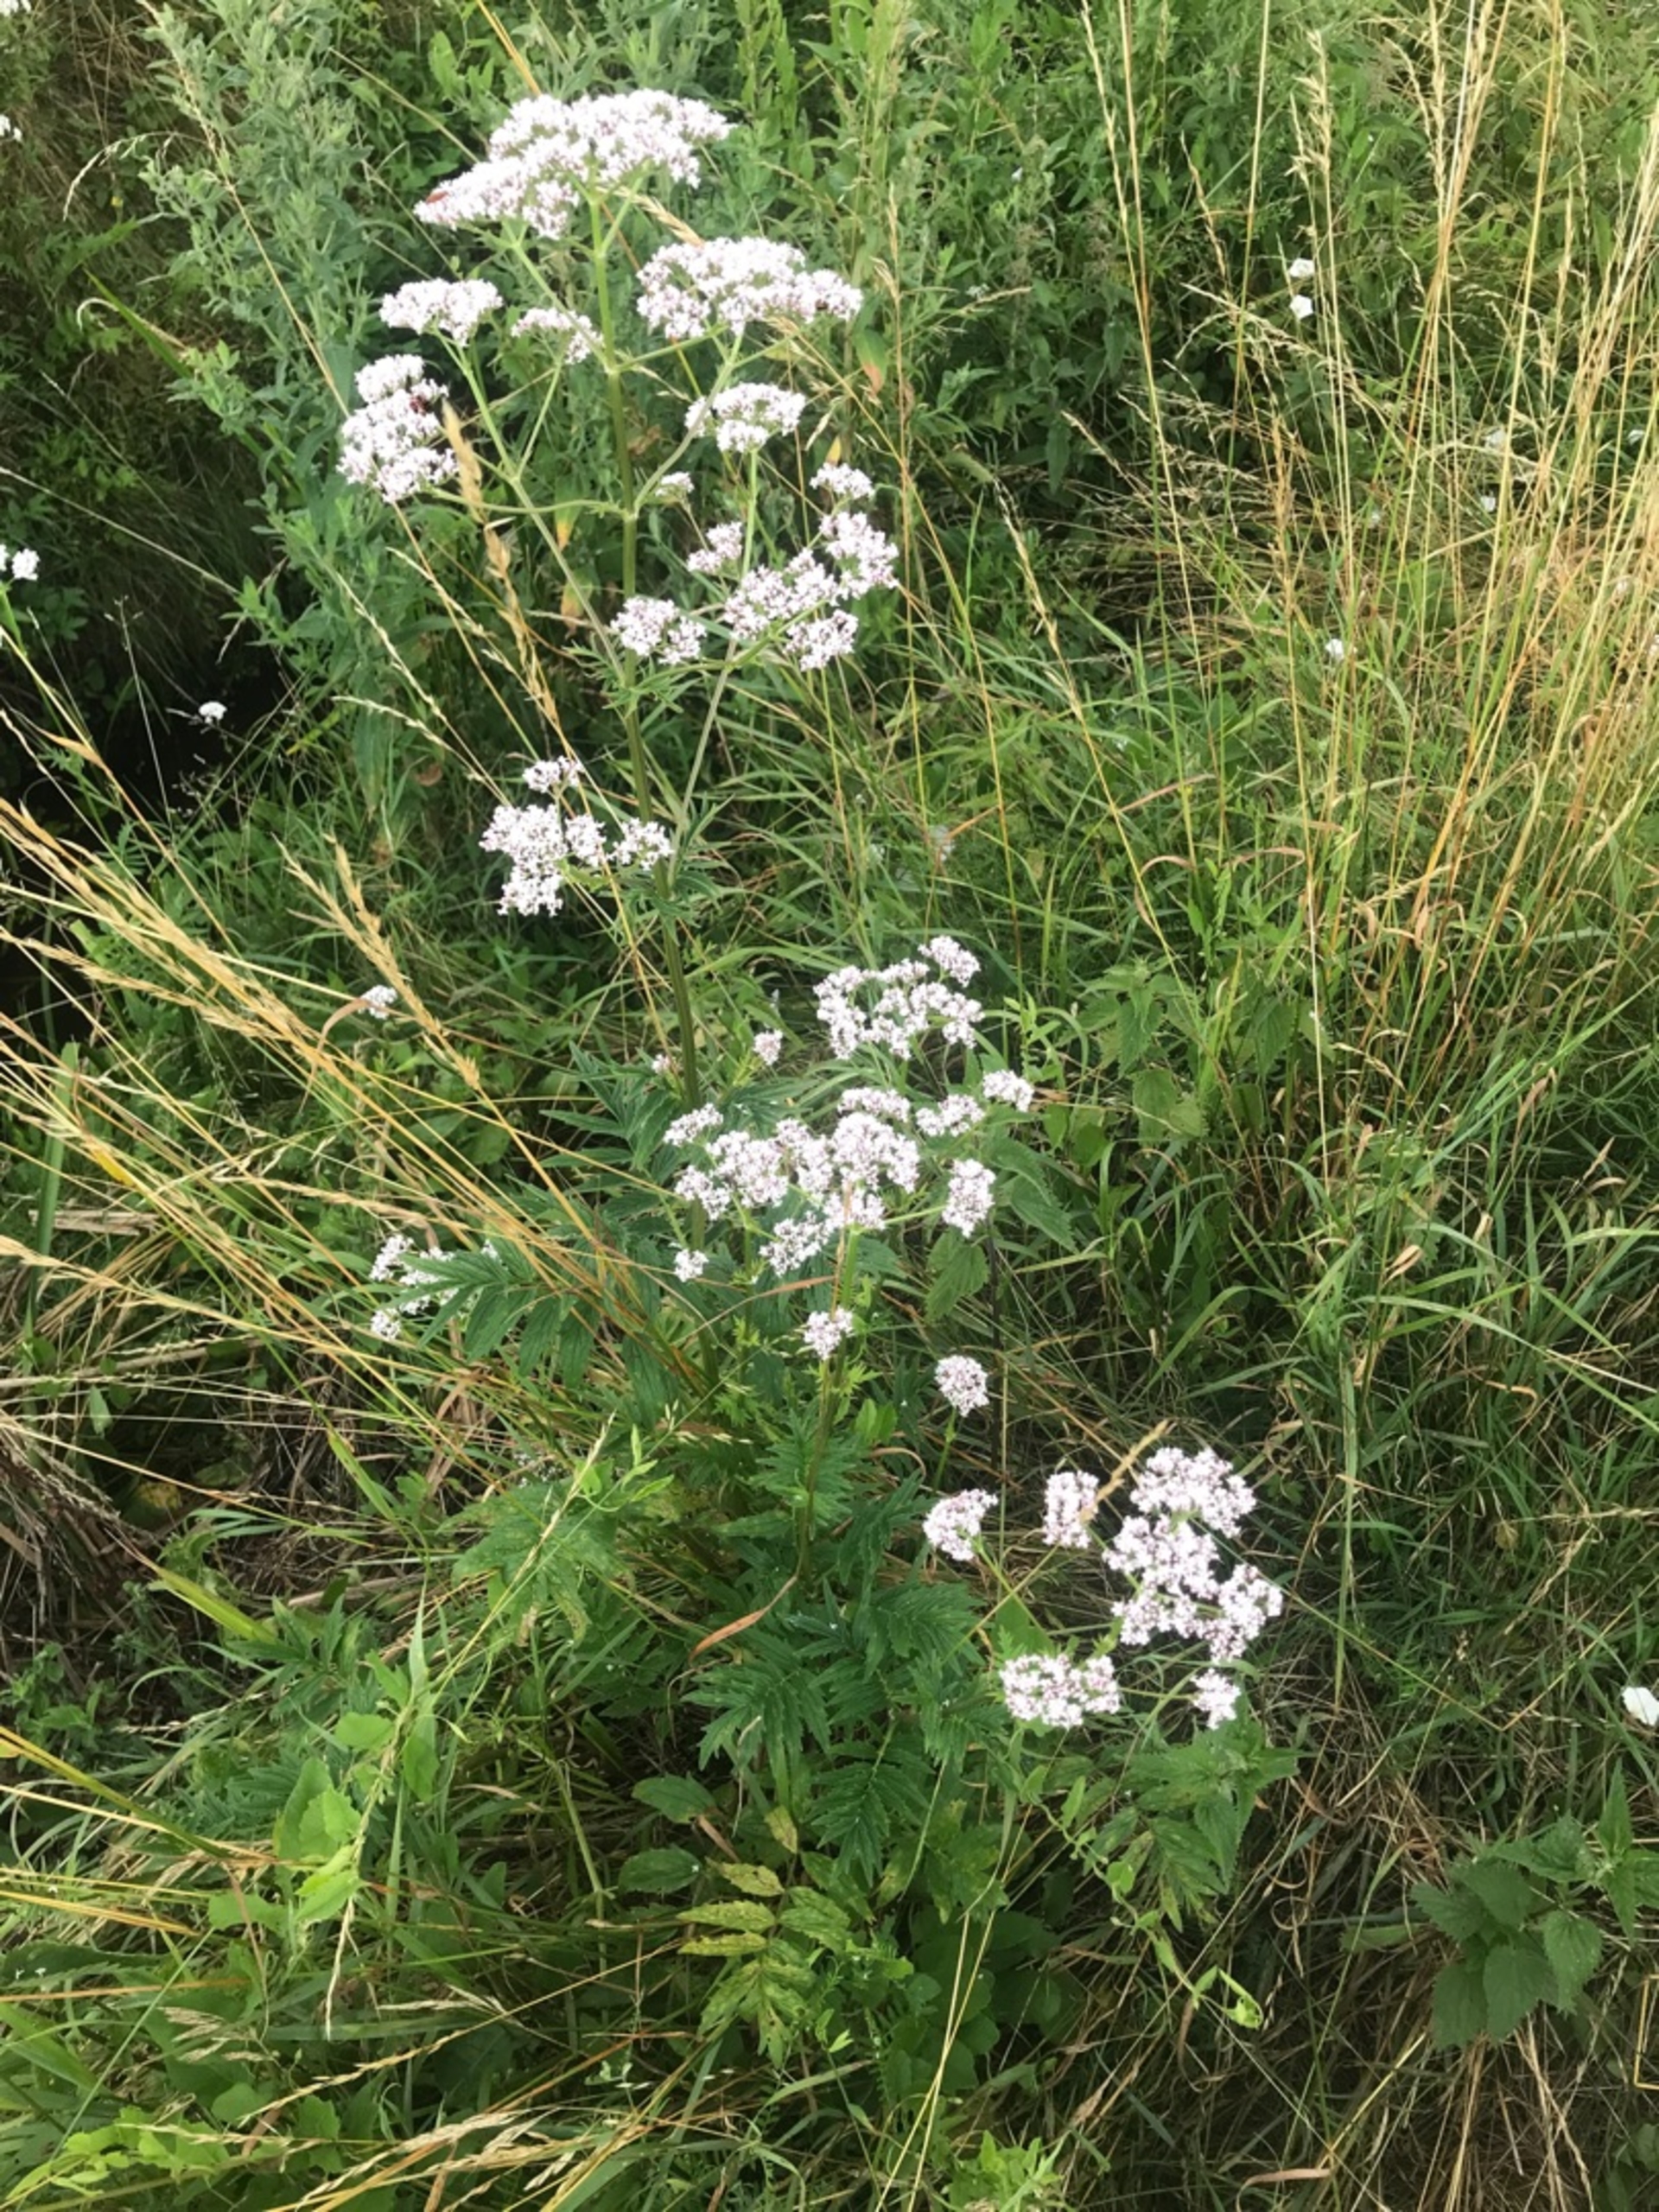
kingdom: Plantae
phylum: Tracheophyta
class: Magnoliopsida
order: Dipsacales
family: Caprifoliaceae
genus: Valeriana
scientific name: Valeriana officinalis
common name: Læge-baldrian
